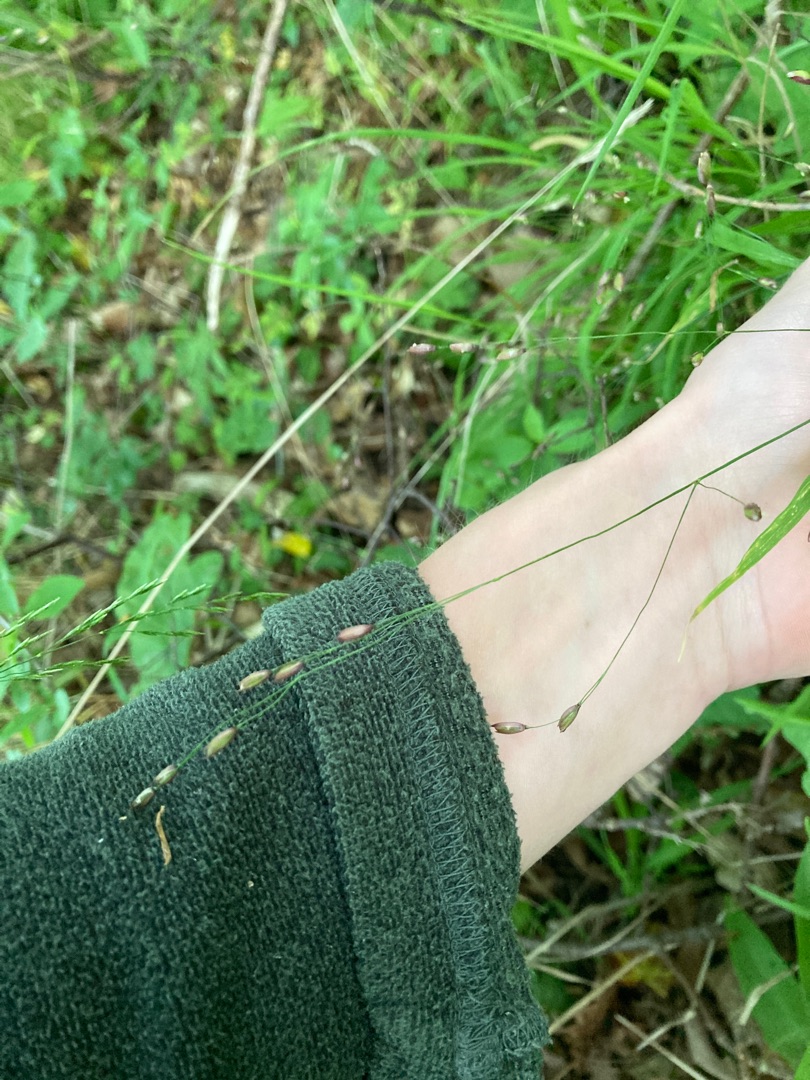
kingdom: Plantae
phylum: Tracheophyta
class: Liliopsida
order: Poales
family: Poaceae
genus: Melica
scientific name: Melica uniflora
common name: Enblomstret flitteraks
